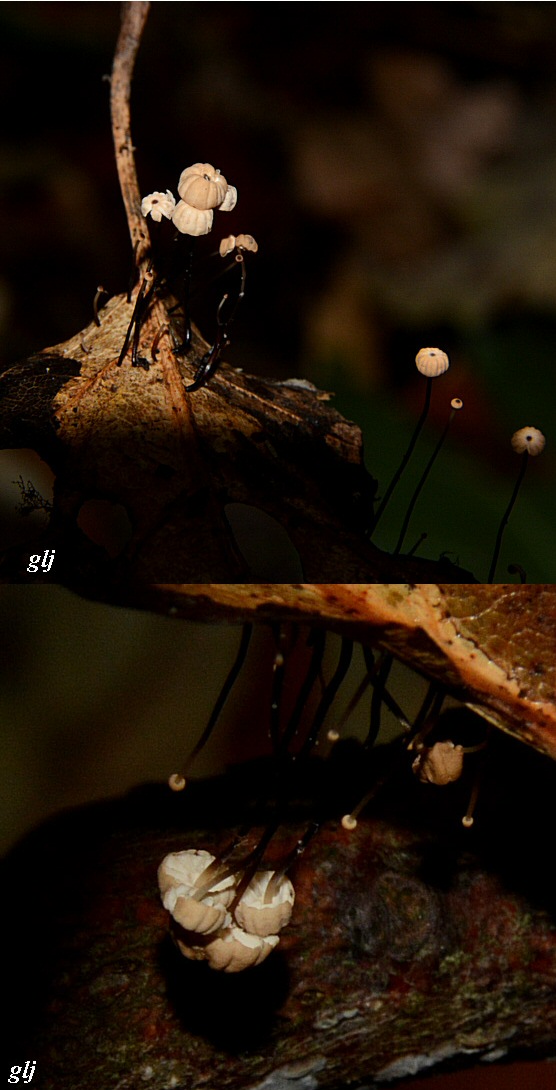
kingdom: Fungi
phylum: Basidiomycota
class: Agaricomycetes
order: Agaricales
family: Marasmiaceae
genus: Marasmius
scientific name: Marasmius rotula
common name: hjul-bruskhat
